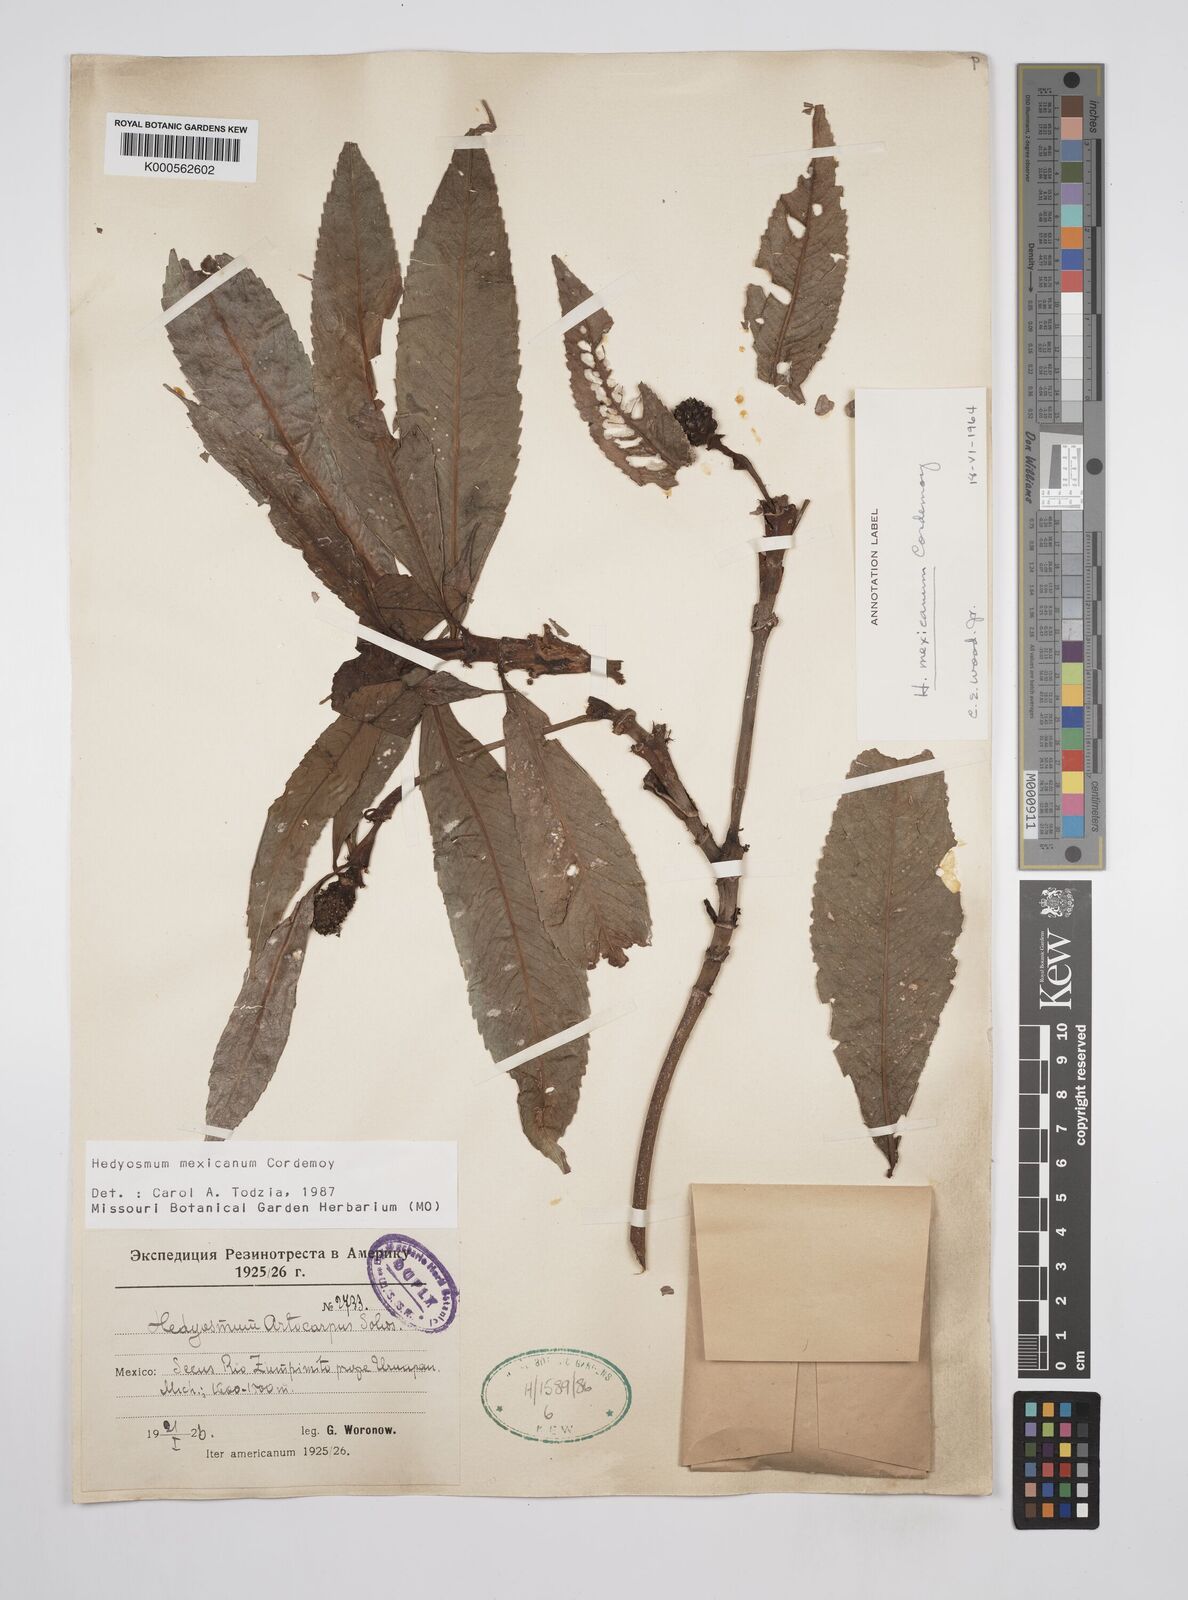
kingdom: Plantae
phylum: Tracheophyta
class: Magnoliopsida
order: Chloranthales
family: Chloranthaceae
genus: Hedyosmum
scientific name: Hedyosmum mexicanum
